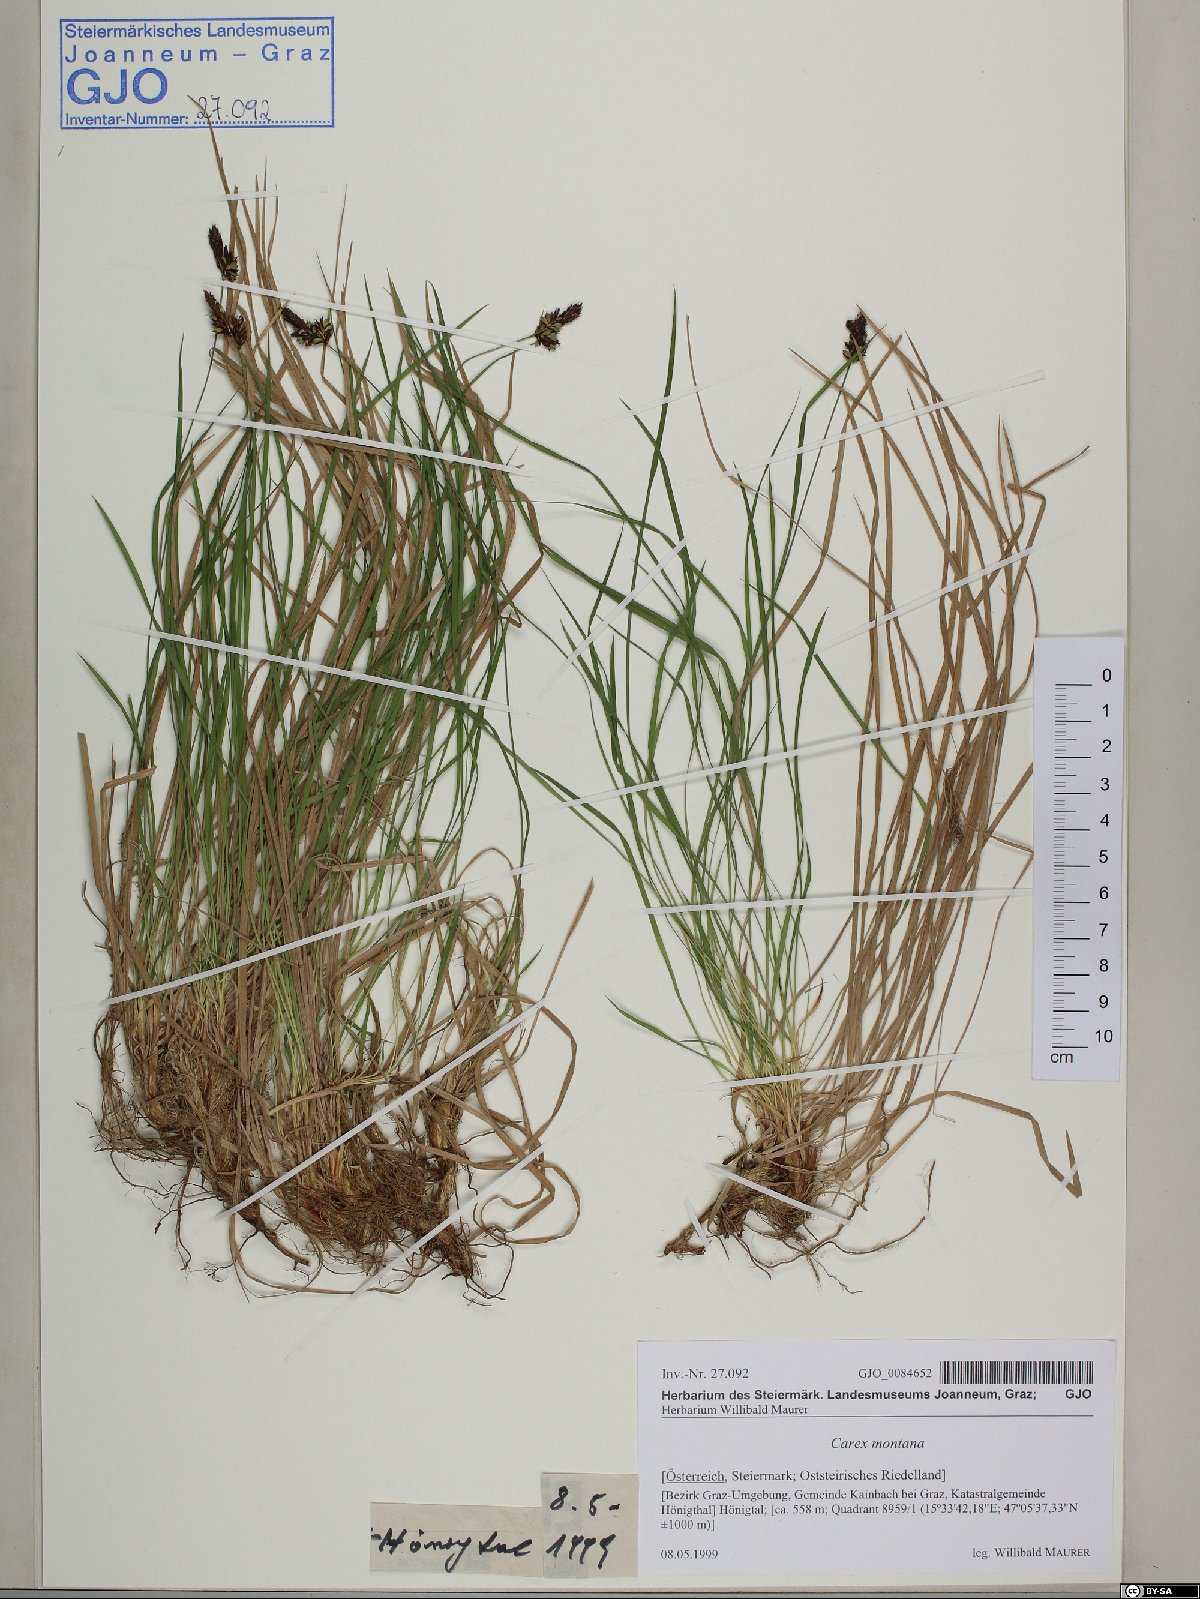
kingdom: Plantae
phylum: Tracheophyta
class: Liliopsida
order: Poales
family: Cyperaceae
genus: Carex
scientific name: Carex montana
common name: Soft-leaved sedge
